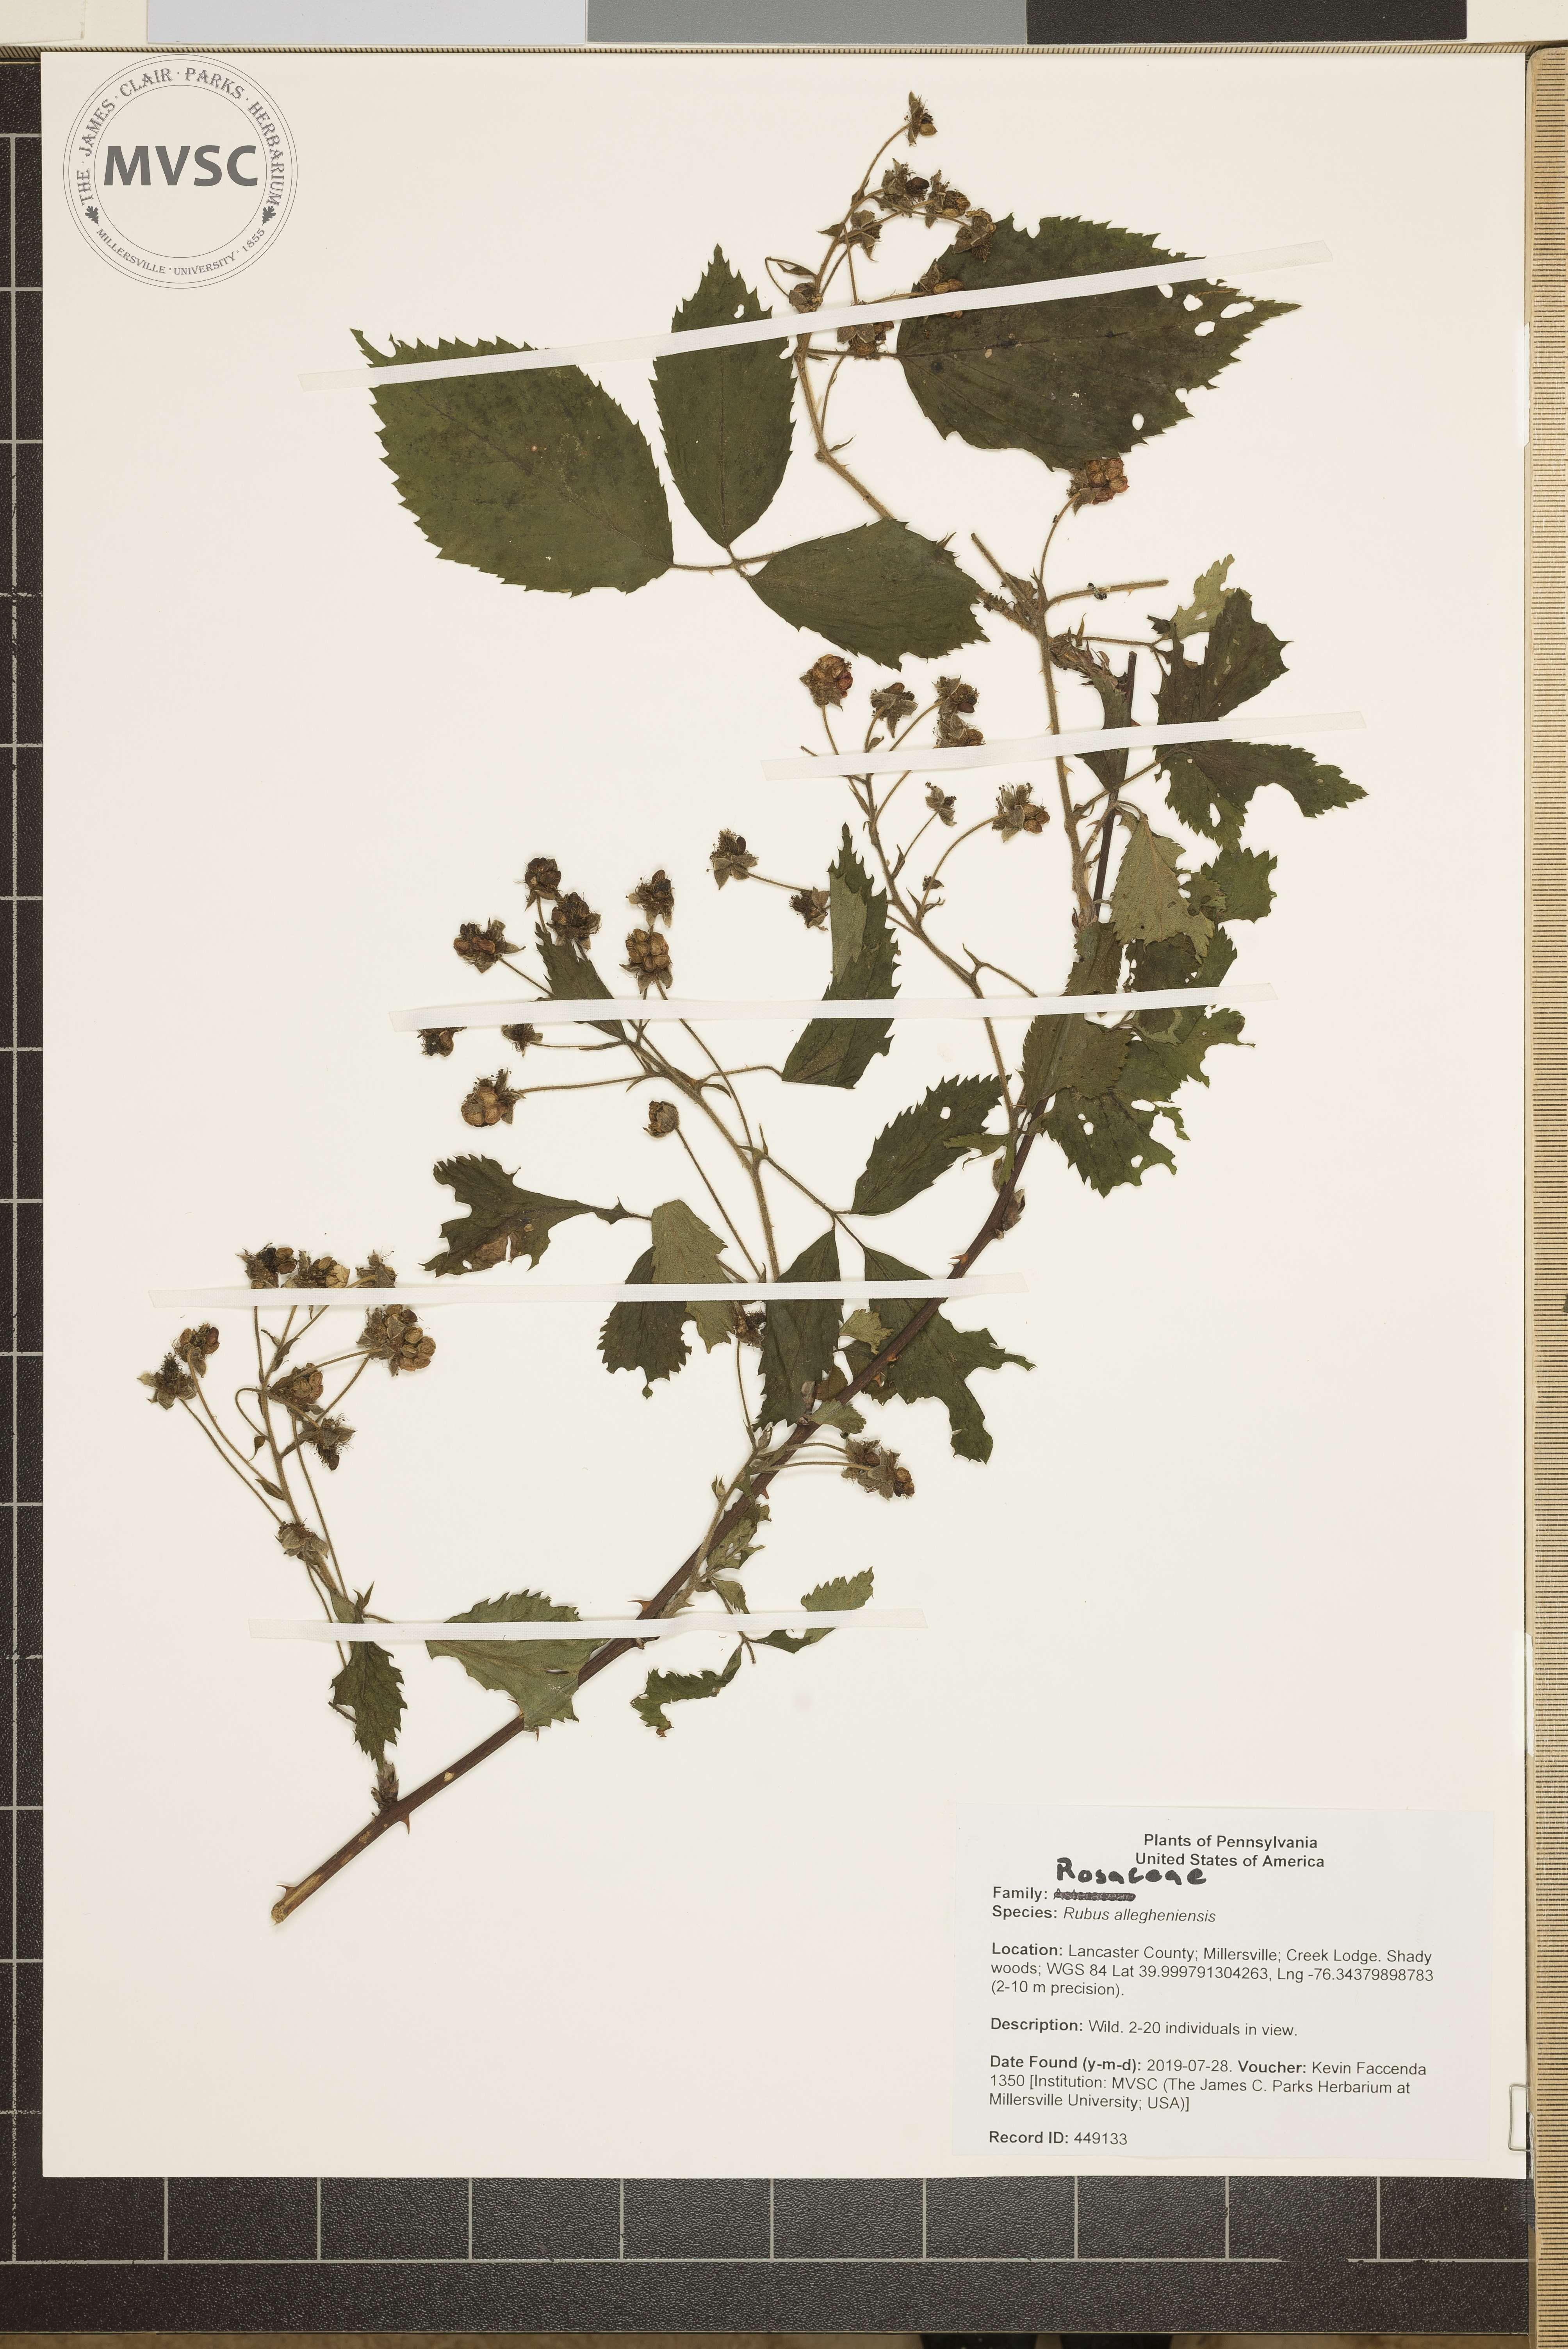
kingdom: Plantae
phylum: Tracheophyta
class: Magnoliopsida
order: Rosales
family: Rosaceae
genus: Rubus
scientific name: Rubus allegheniensis
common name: Allegheny blackberry
